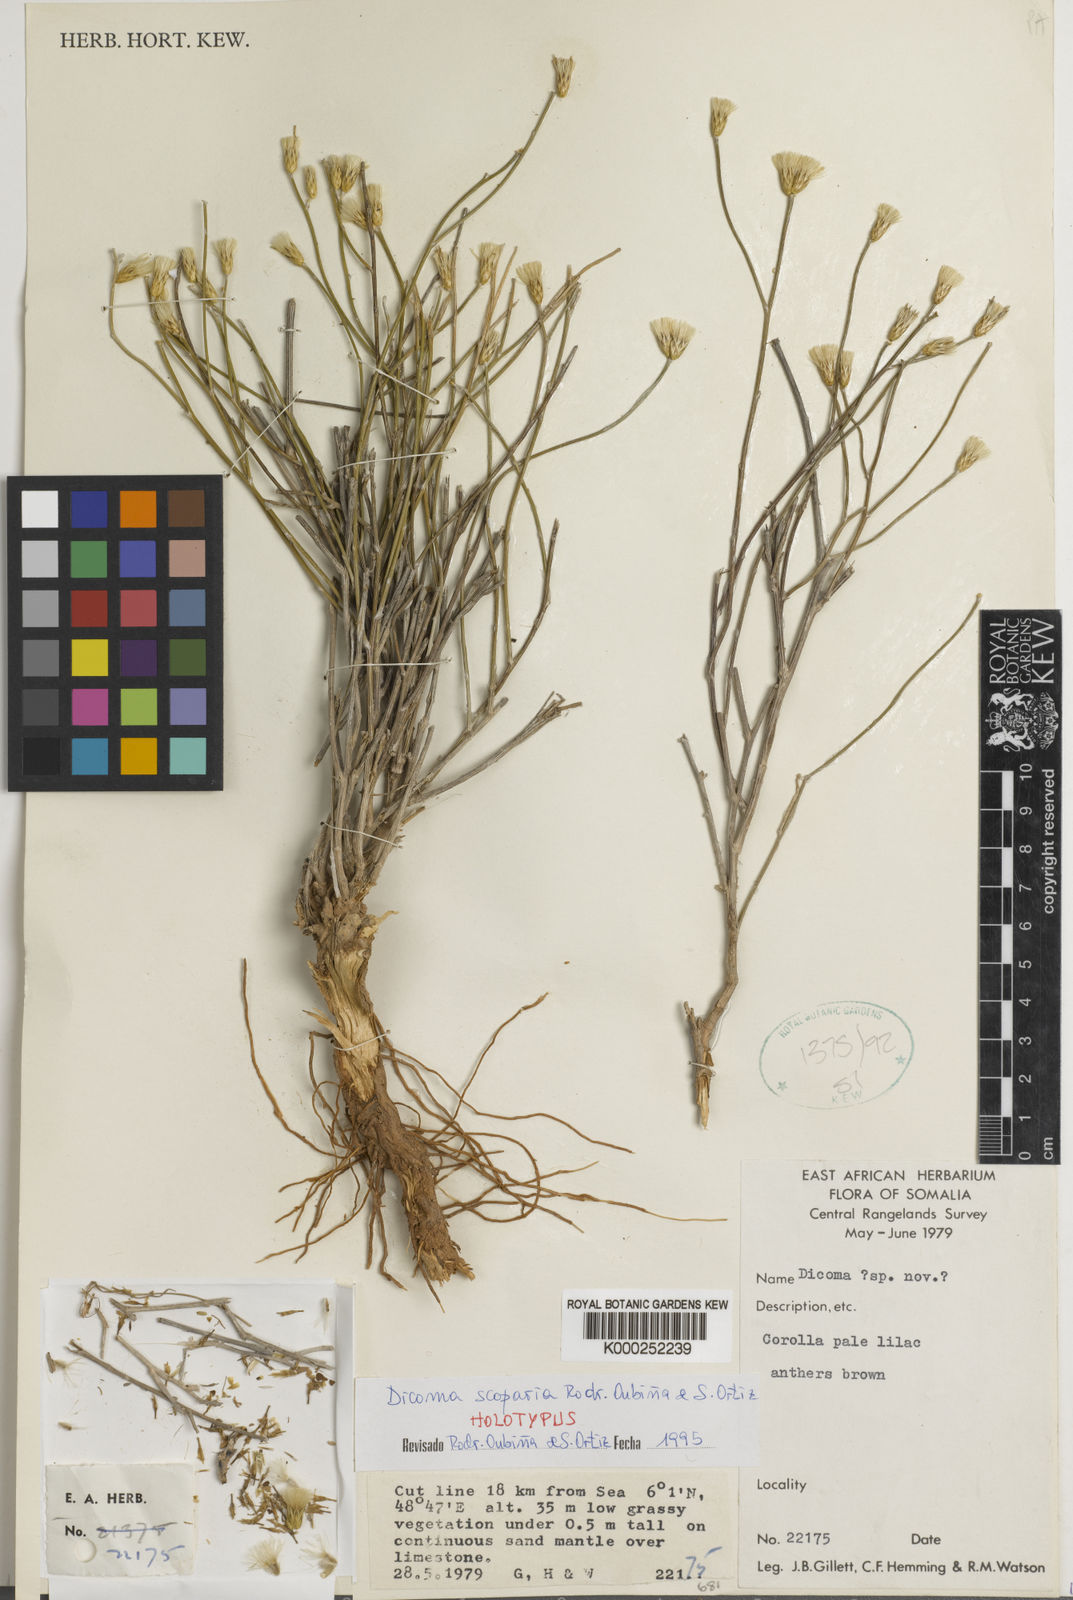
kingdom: Plantae
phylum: Tracheophyta
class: Magnoliopsida
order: Asterales
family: Asteraceae
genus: Dicoma
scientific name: Dicoma
